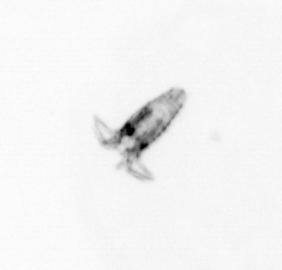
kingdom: Animalia
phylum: Arthropoda
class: Copepoda
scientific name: Copepoda
